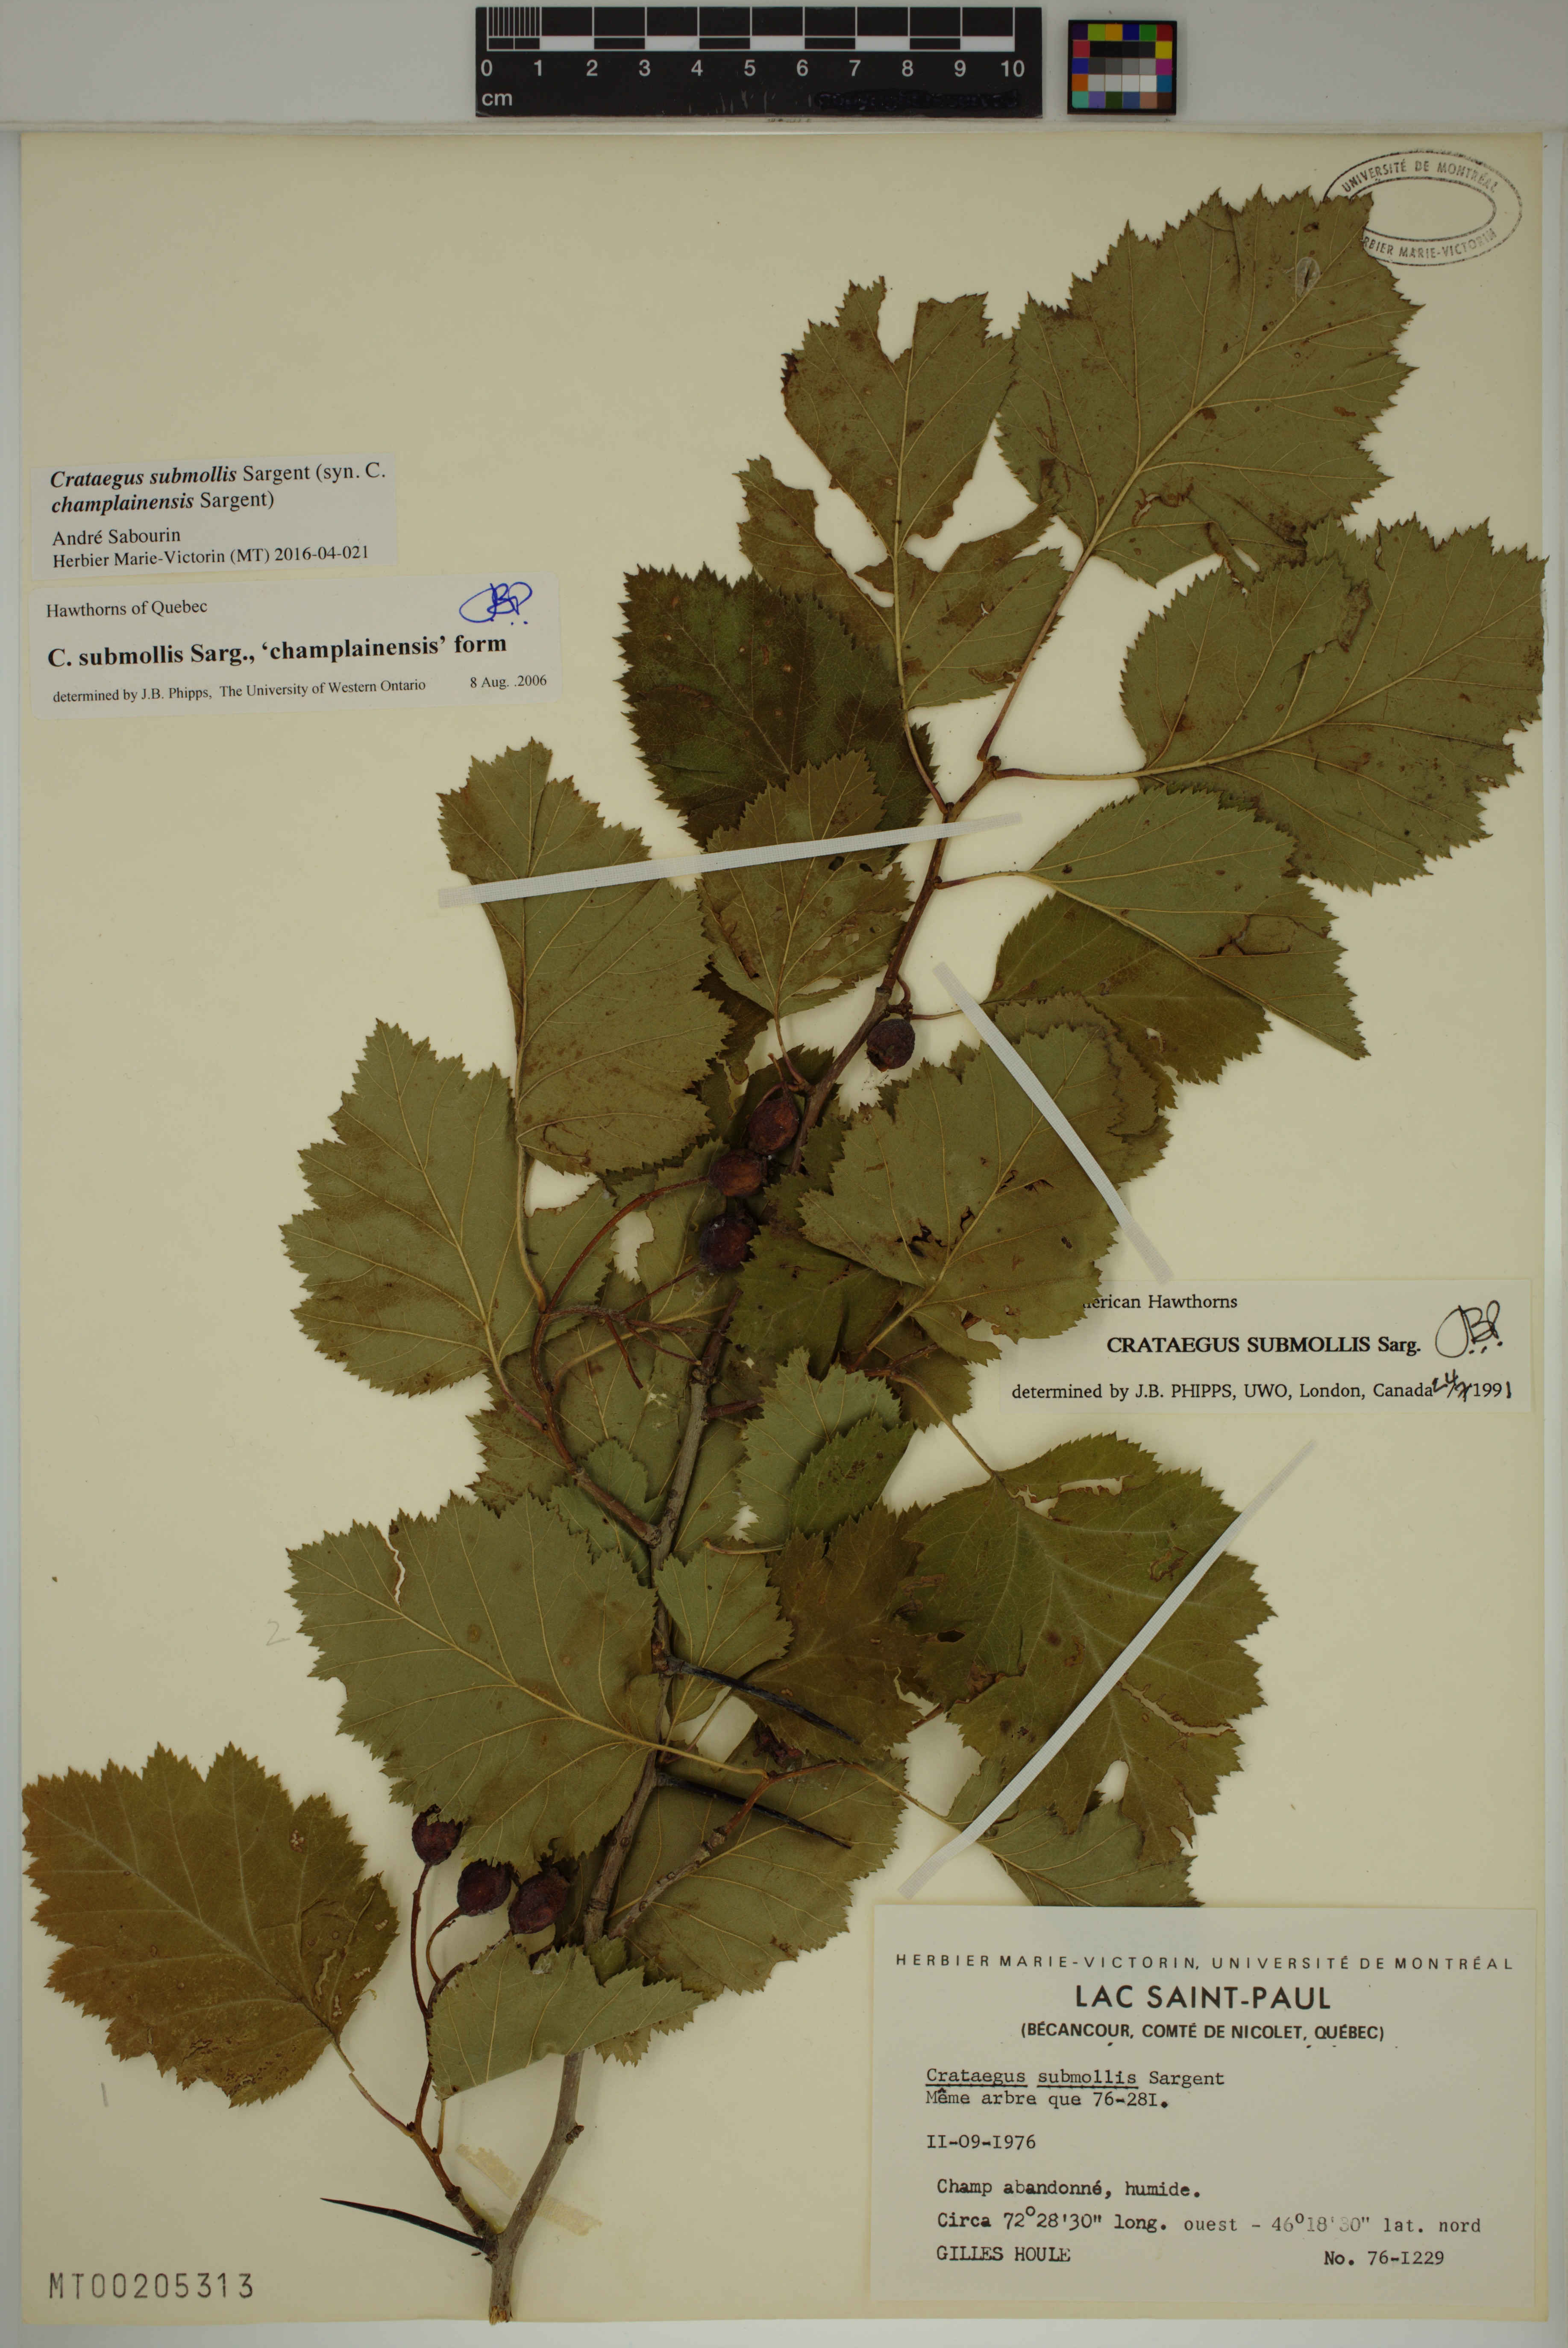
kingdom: Plantae
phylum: Tracheophyta
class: Magnoliopsida
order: Rosales
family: Rosaceae
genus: Crataegus
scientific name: Crataegus submollis
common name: Hairy cockspurthorn
